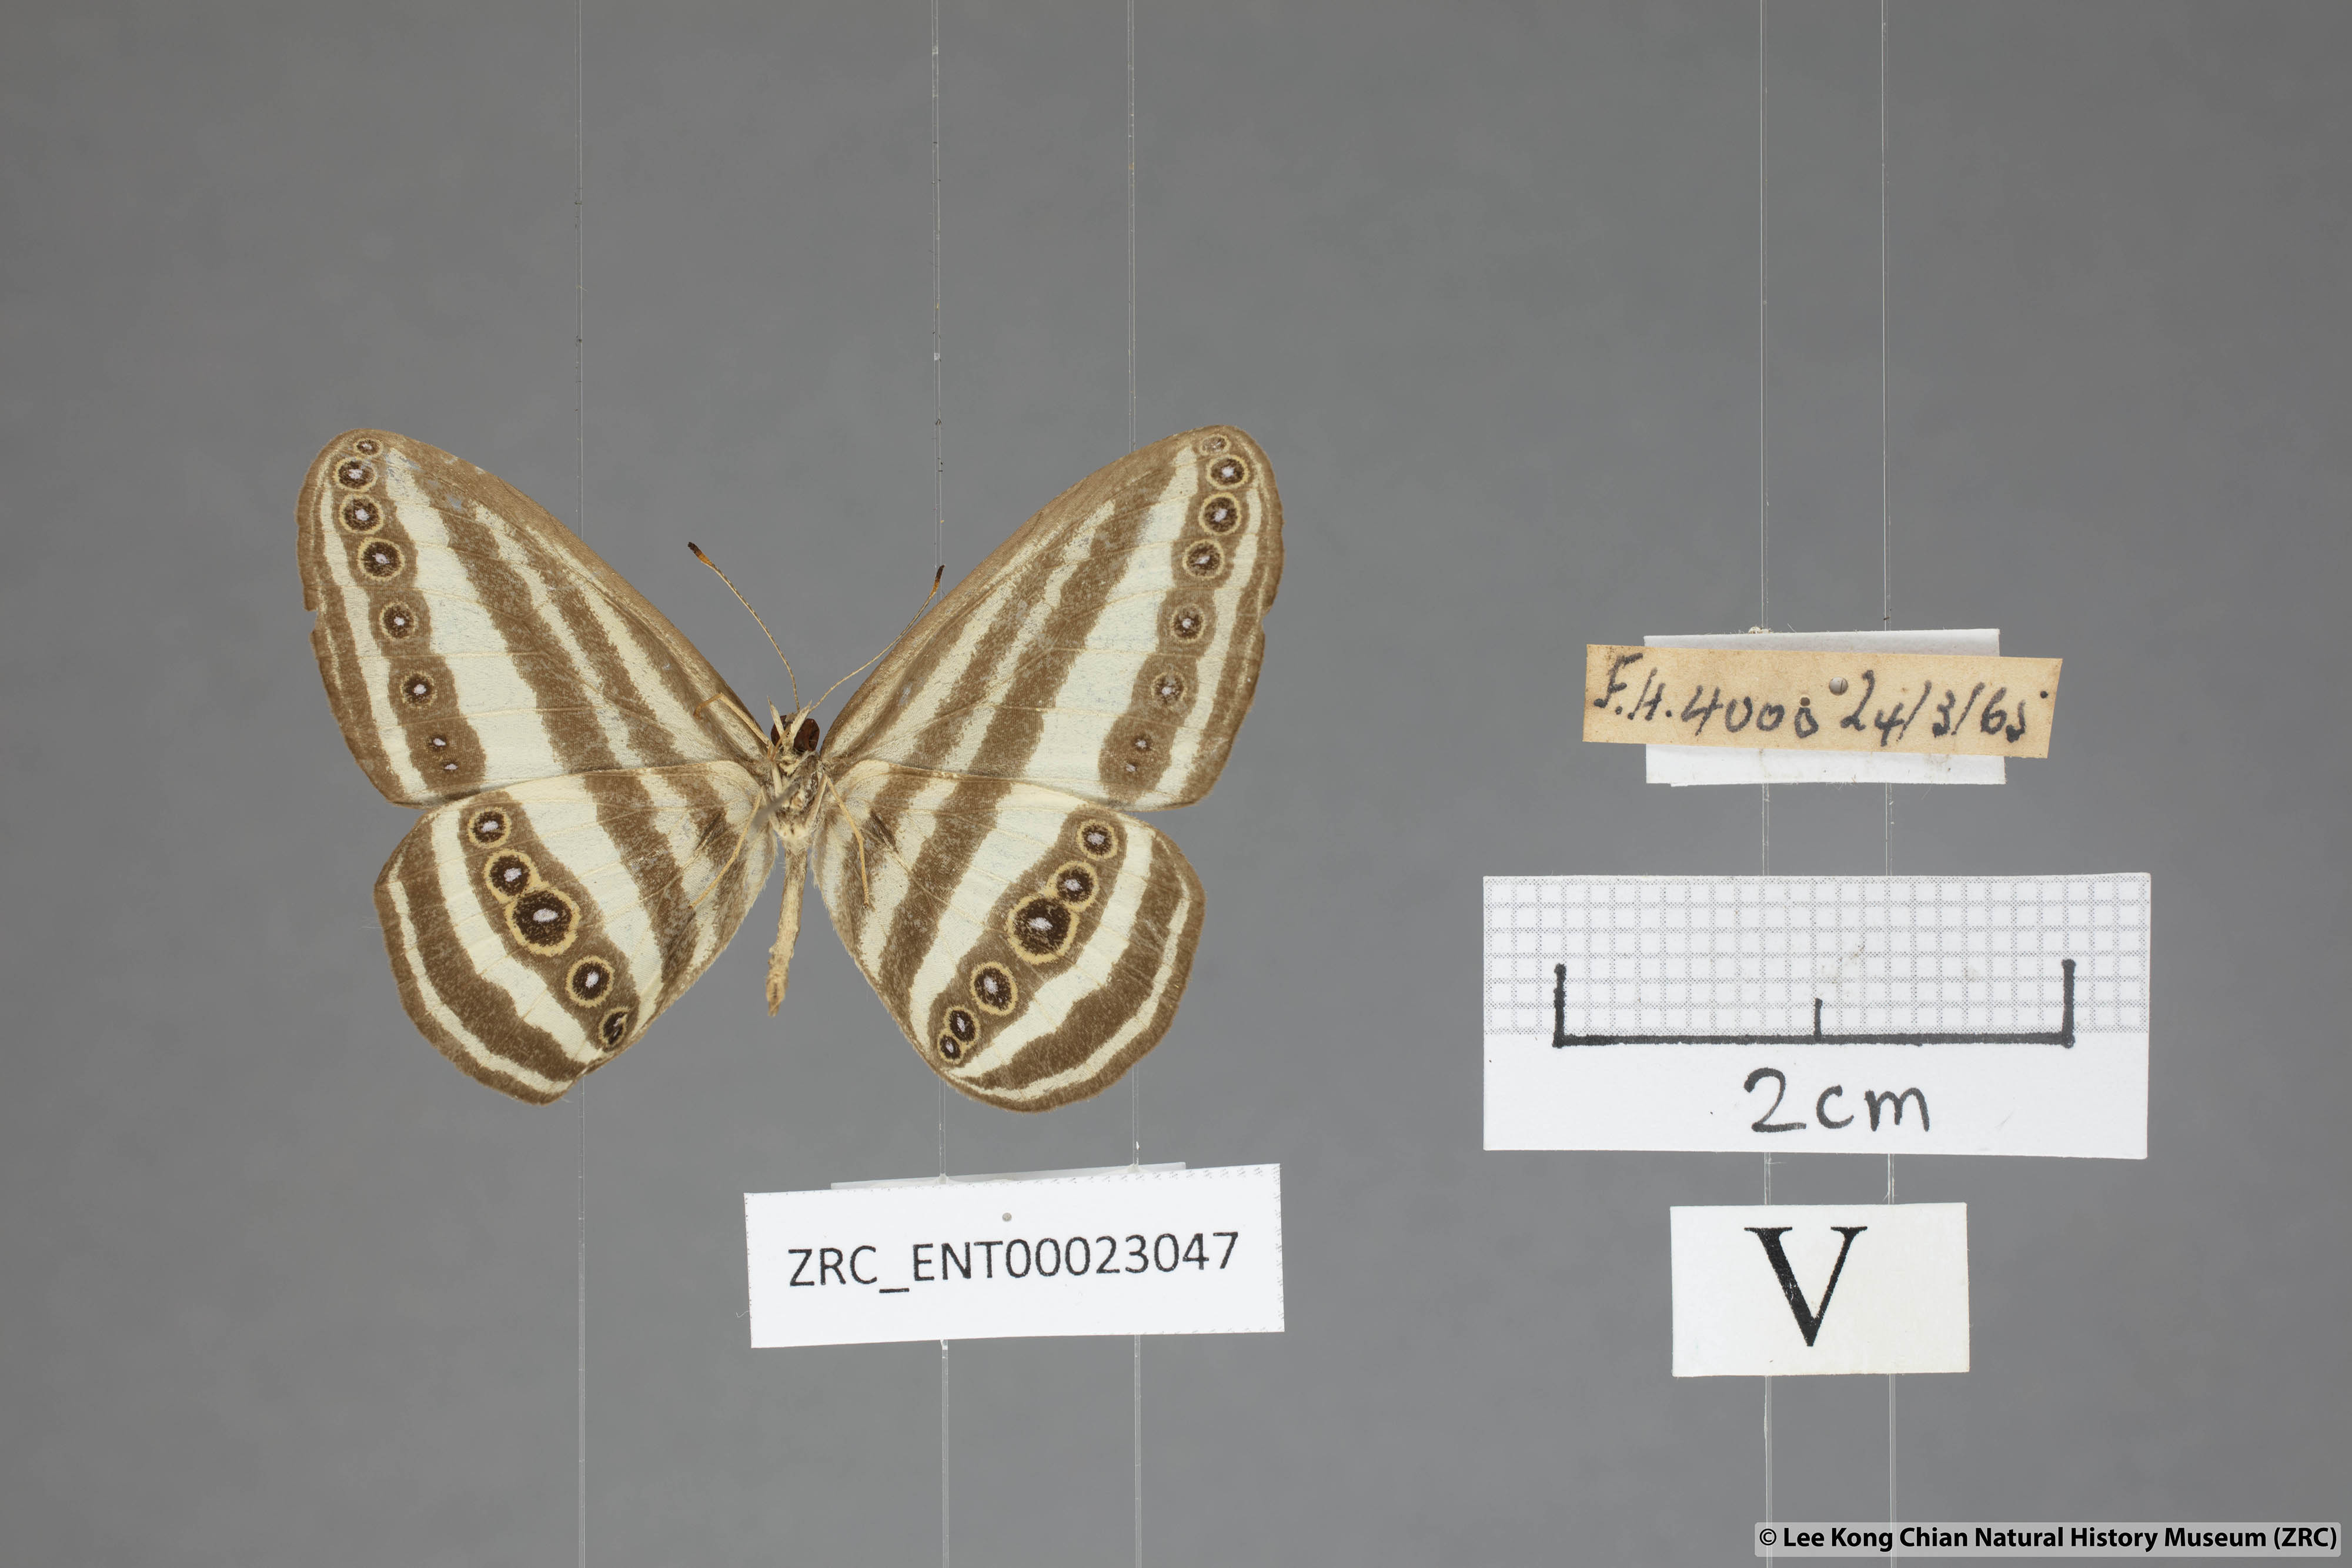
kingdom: Animalia
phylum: Arthropoda
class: Insecta
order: Lepidoptera
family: Nymphalidae
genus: Ragadia
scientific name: Ragadia crisilda
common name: White-striped ringlet
